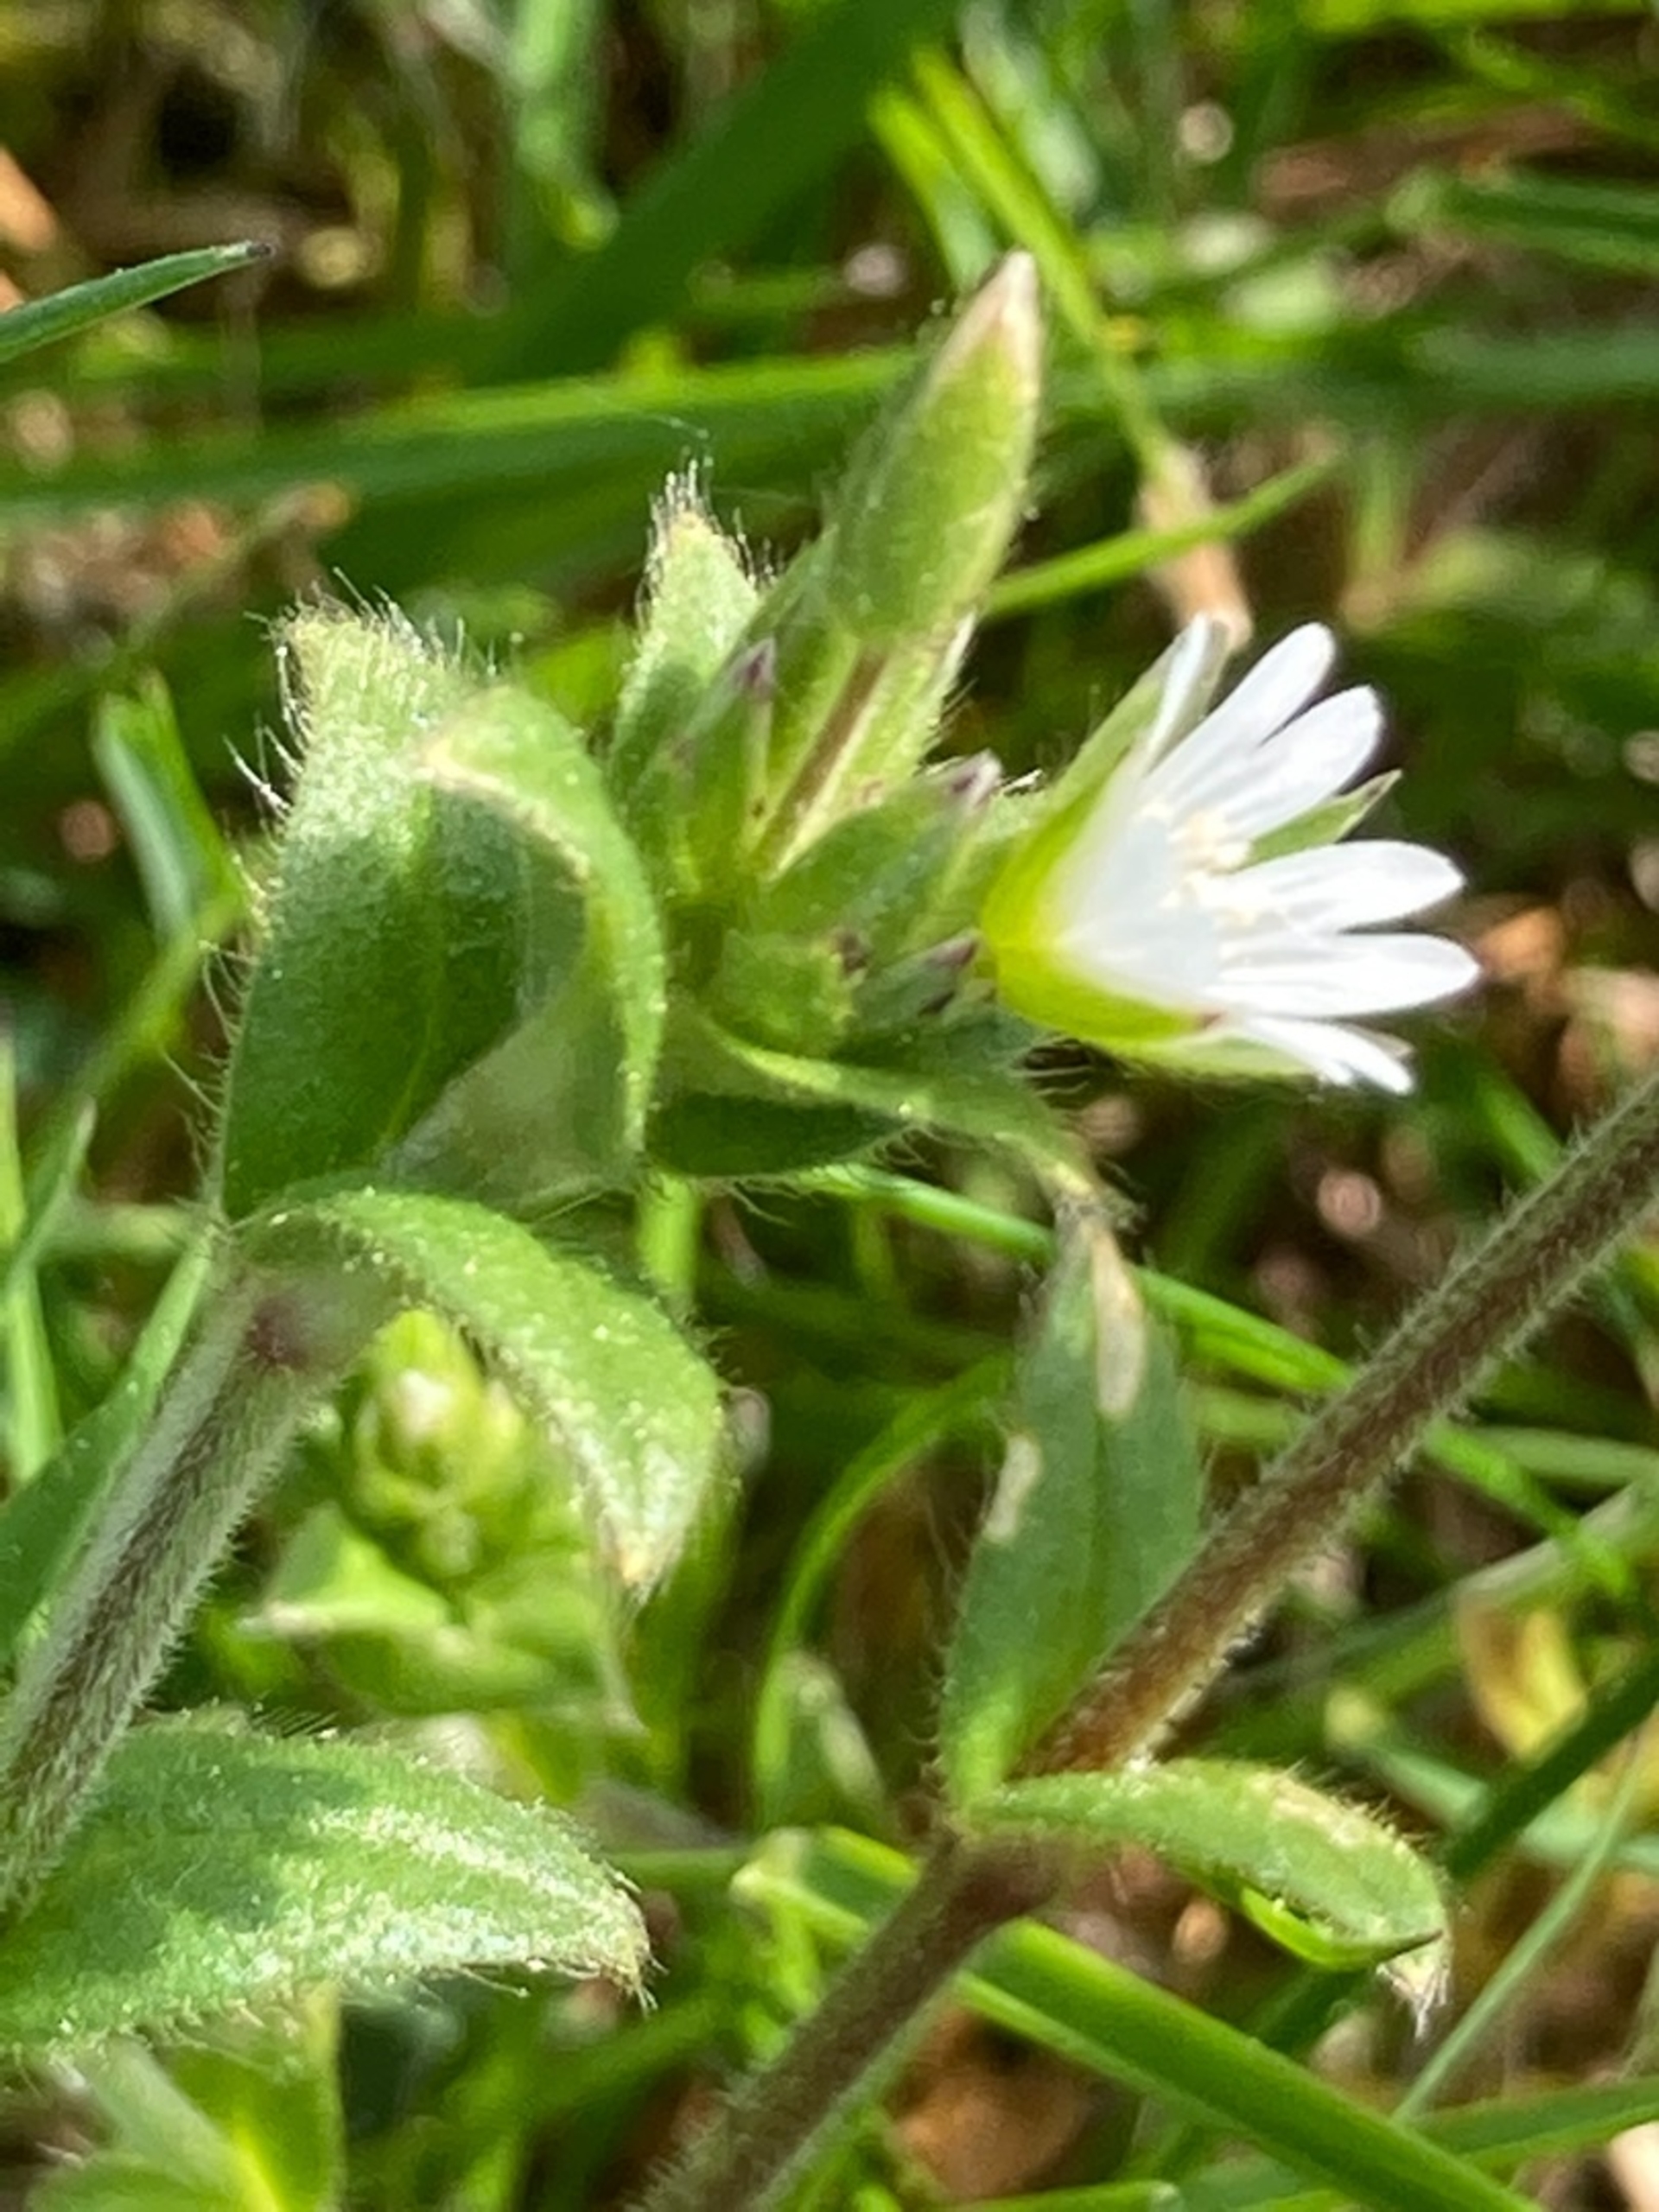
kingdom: Plantae
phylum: Tracheophyta
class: Magnoliopsida
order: Caryophyllales
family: Caryophyllaceae
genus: Cerastium
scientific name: Cerastium fontanum
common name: Almindelig hønsetarm
